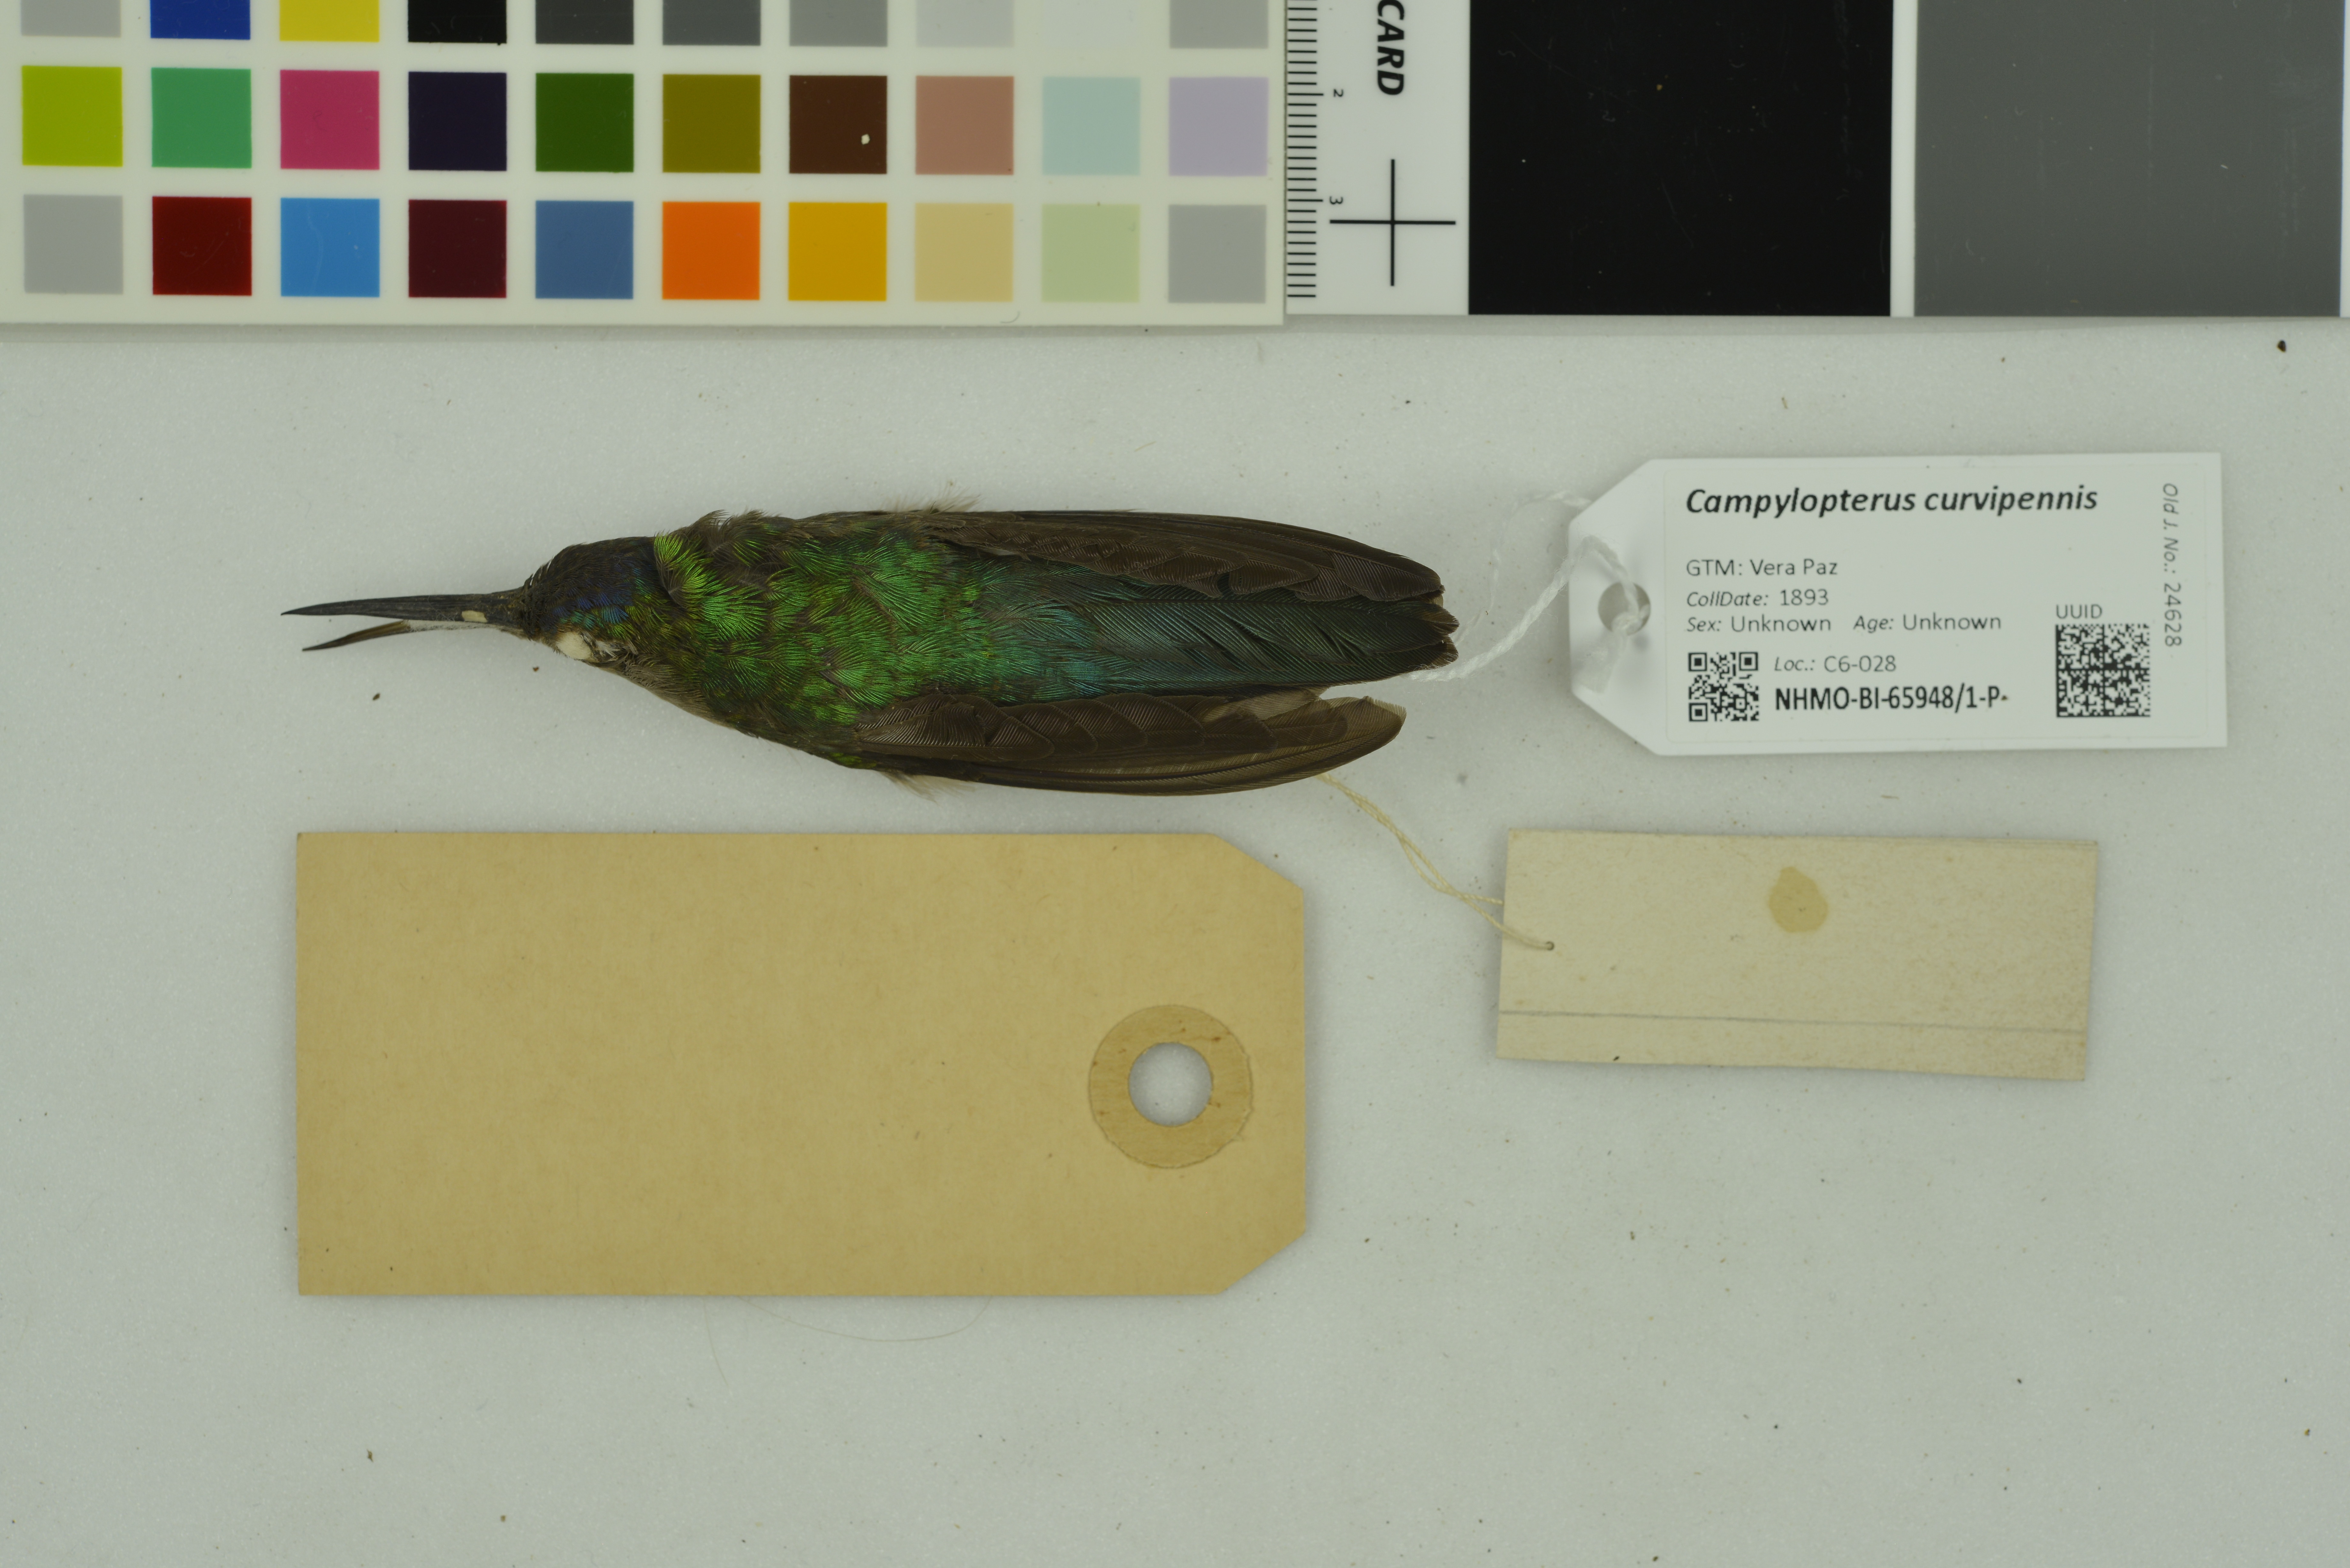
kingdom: Animalia
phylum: Chordata
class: Aves
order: Apodiformes
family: Trochilidae
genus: Pampa
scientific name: Pampa curvipennis
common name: Curve-winged sabrewing
